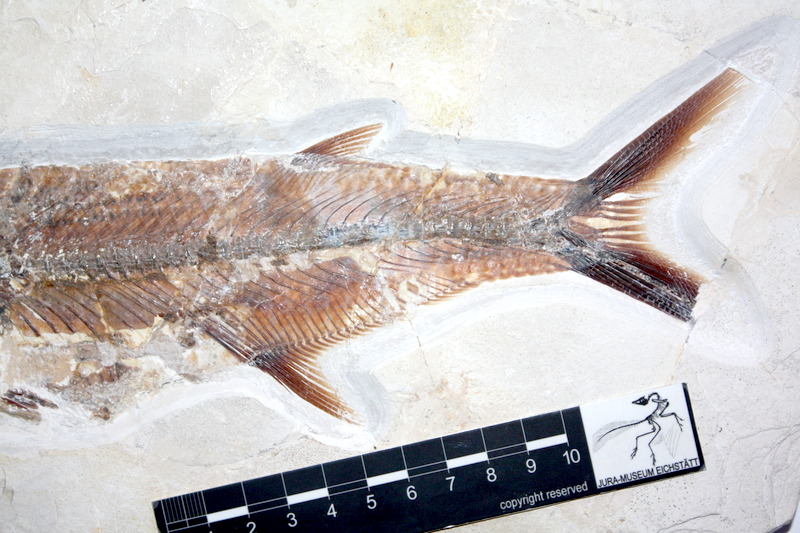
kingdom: Animalia
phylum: Chordata
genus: Thrissops
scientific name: Thrissops formosus
